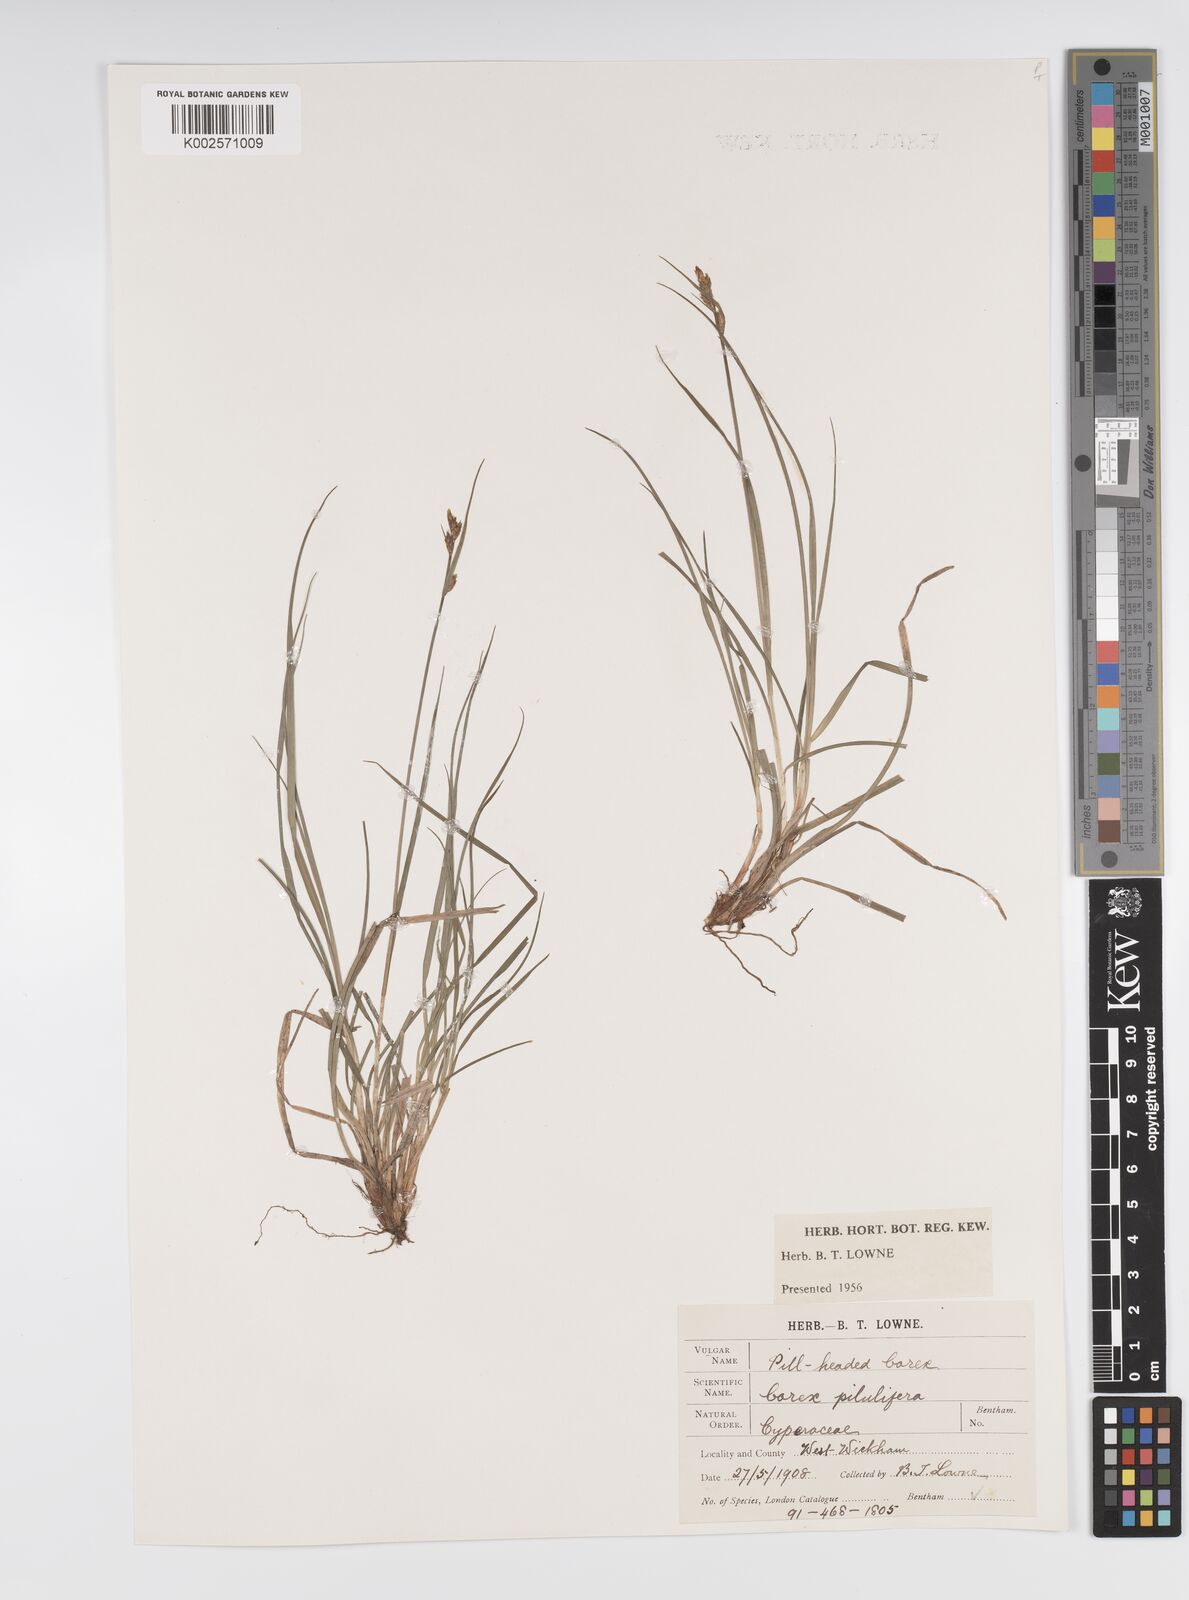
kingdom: Plantae
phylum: Tracheophyta
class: Liliopsida
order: Poales
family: Cyperaceae
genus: Carex
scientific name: Carex praecox
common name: Early sedge
